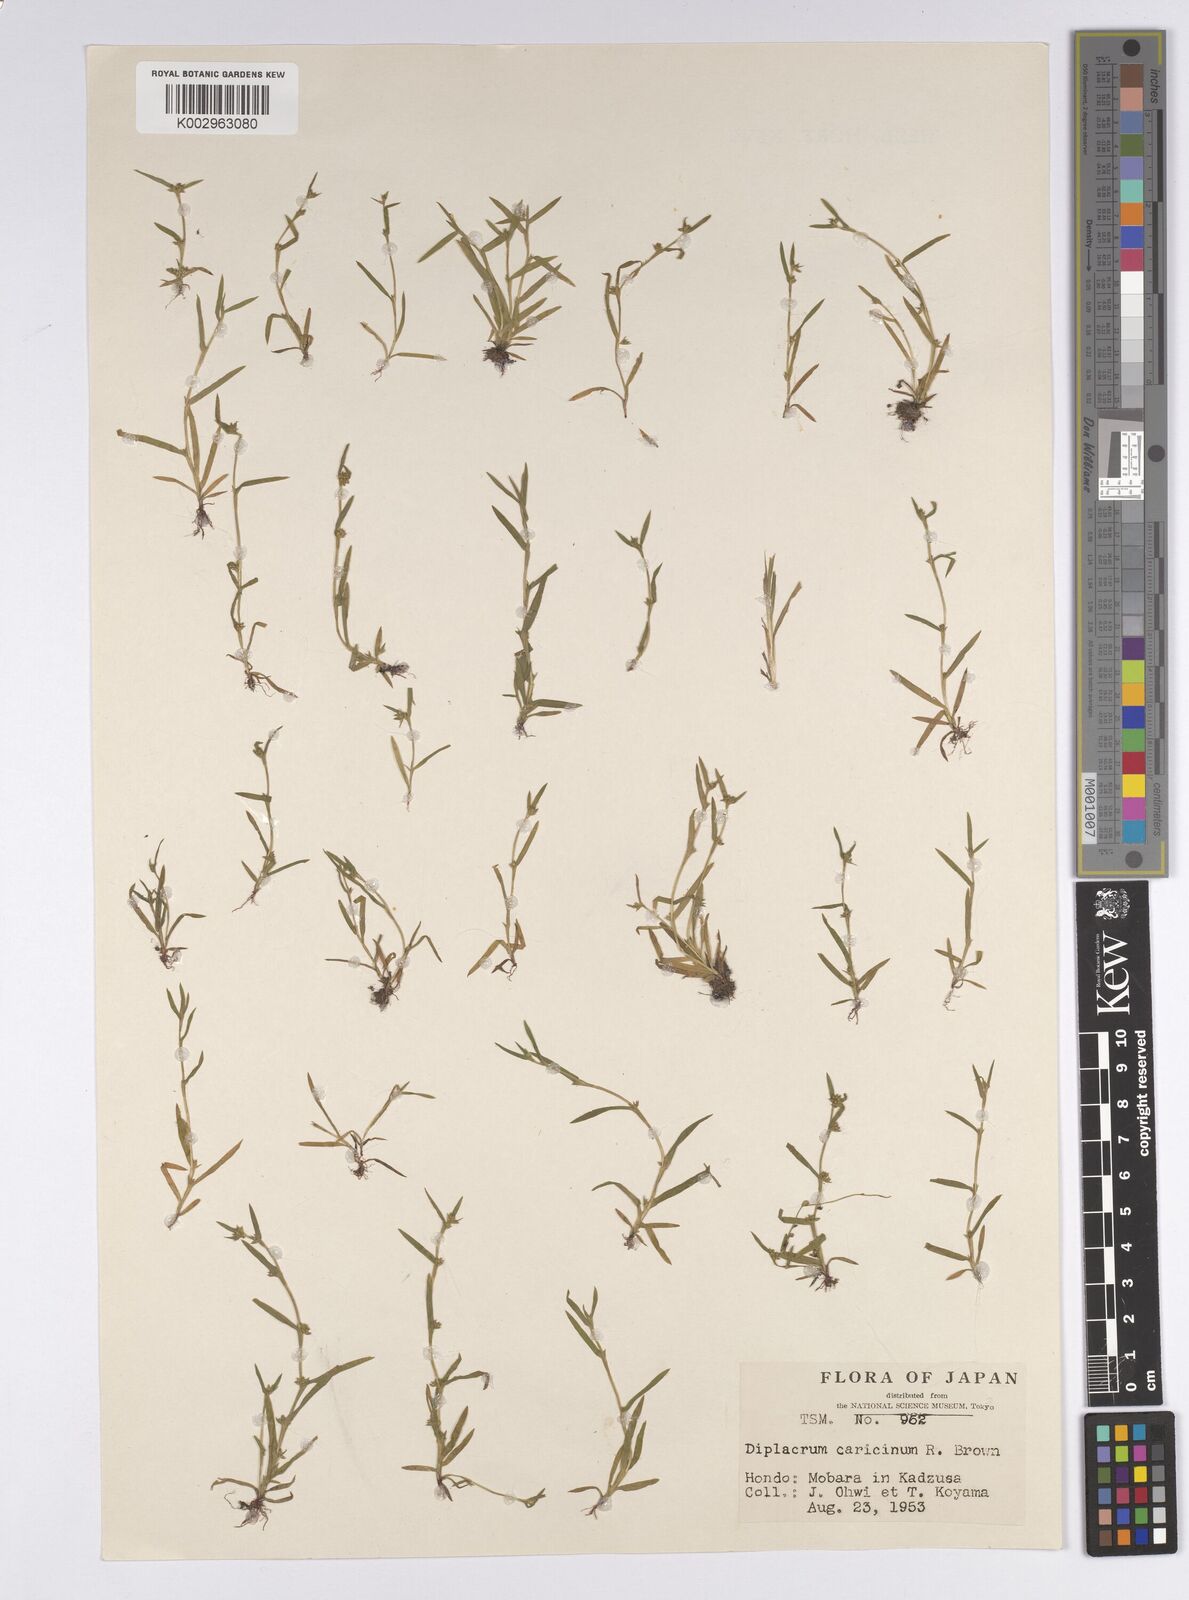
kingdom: Plantae
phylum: Tracheophyta
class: Liliopsida
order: Poales
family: Cyperaceae
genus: Diplacrum
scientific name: Diplacrum caricinum
